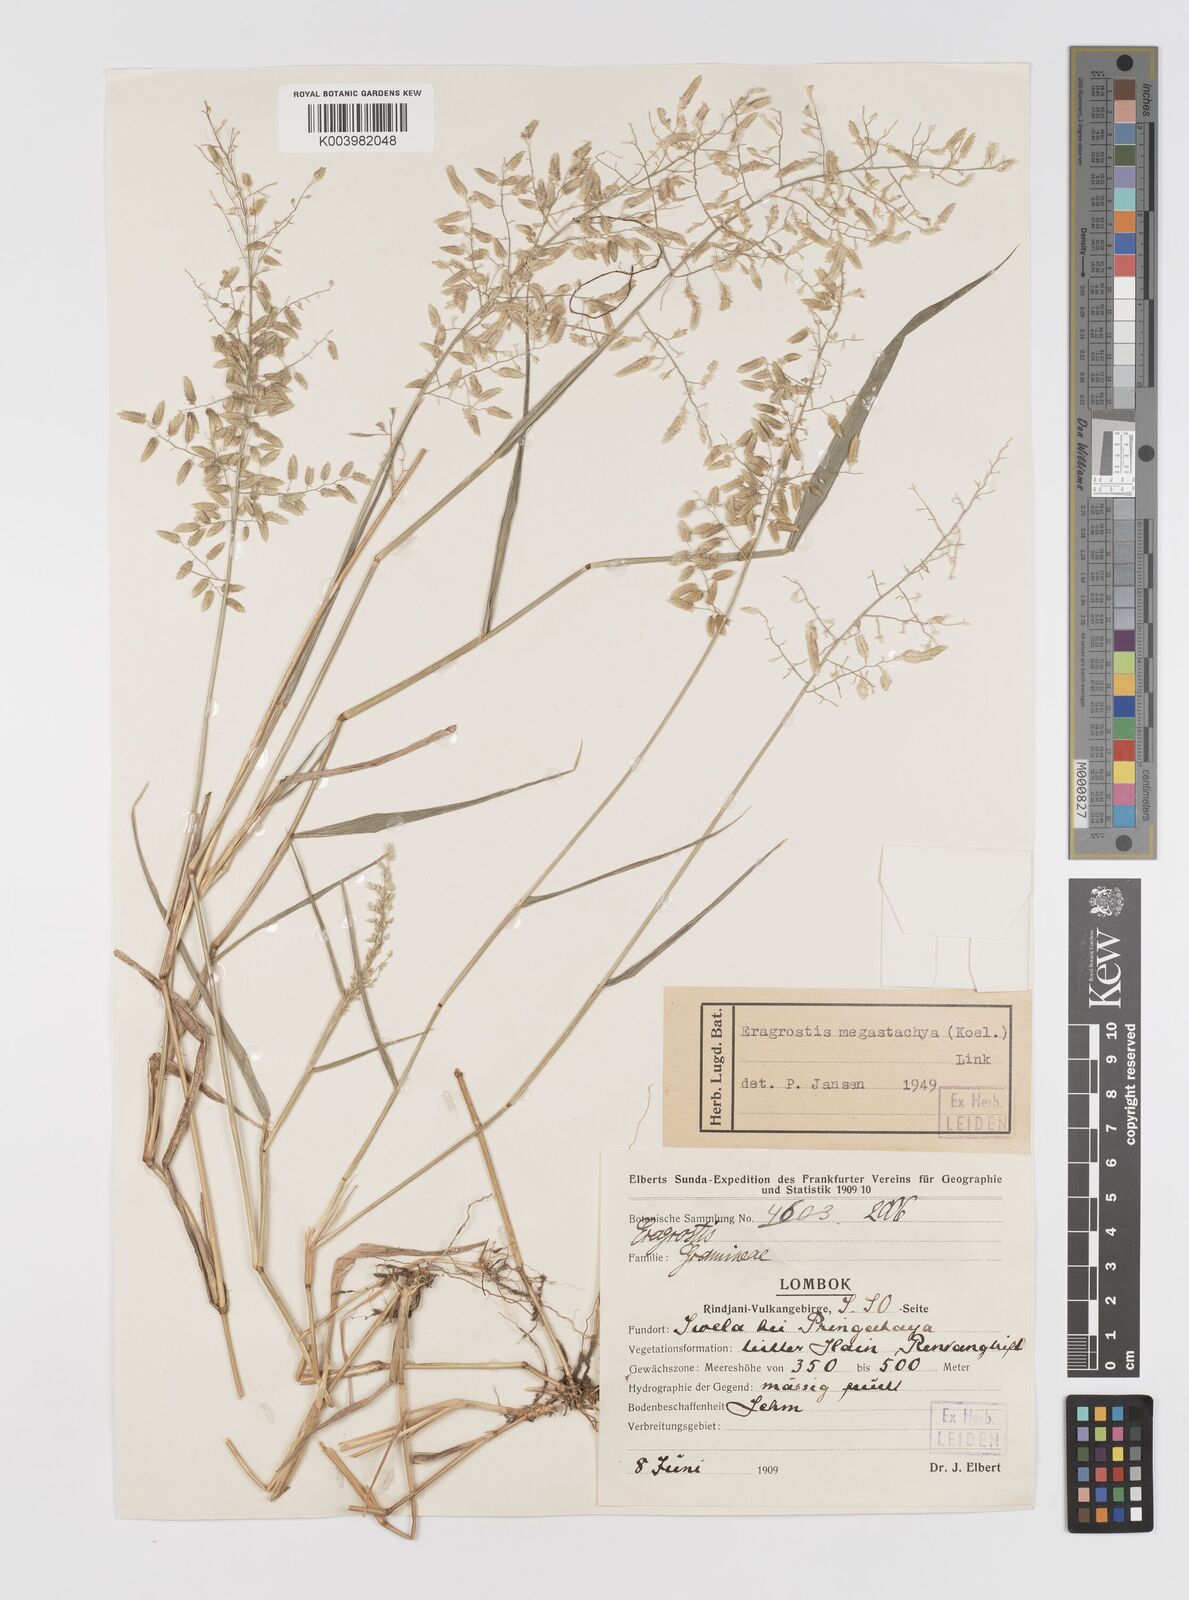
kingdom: Plantae
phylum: Tracheophyta
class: Liliopsida
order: Poales
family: Poaceae
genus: Eragrostis
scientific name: Eragrostis cilianensis
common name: Stinkgrass
